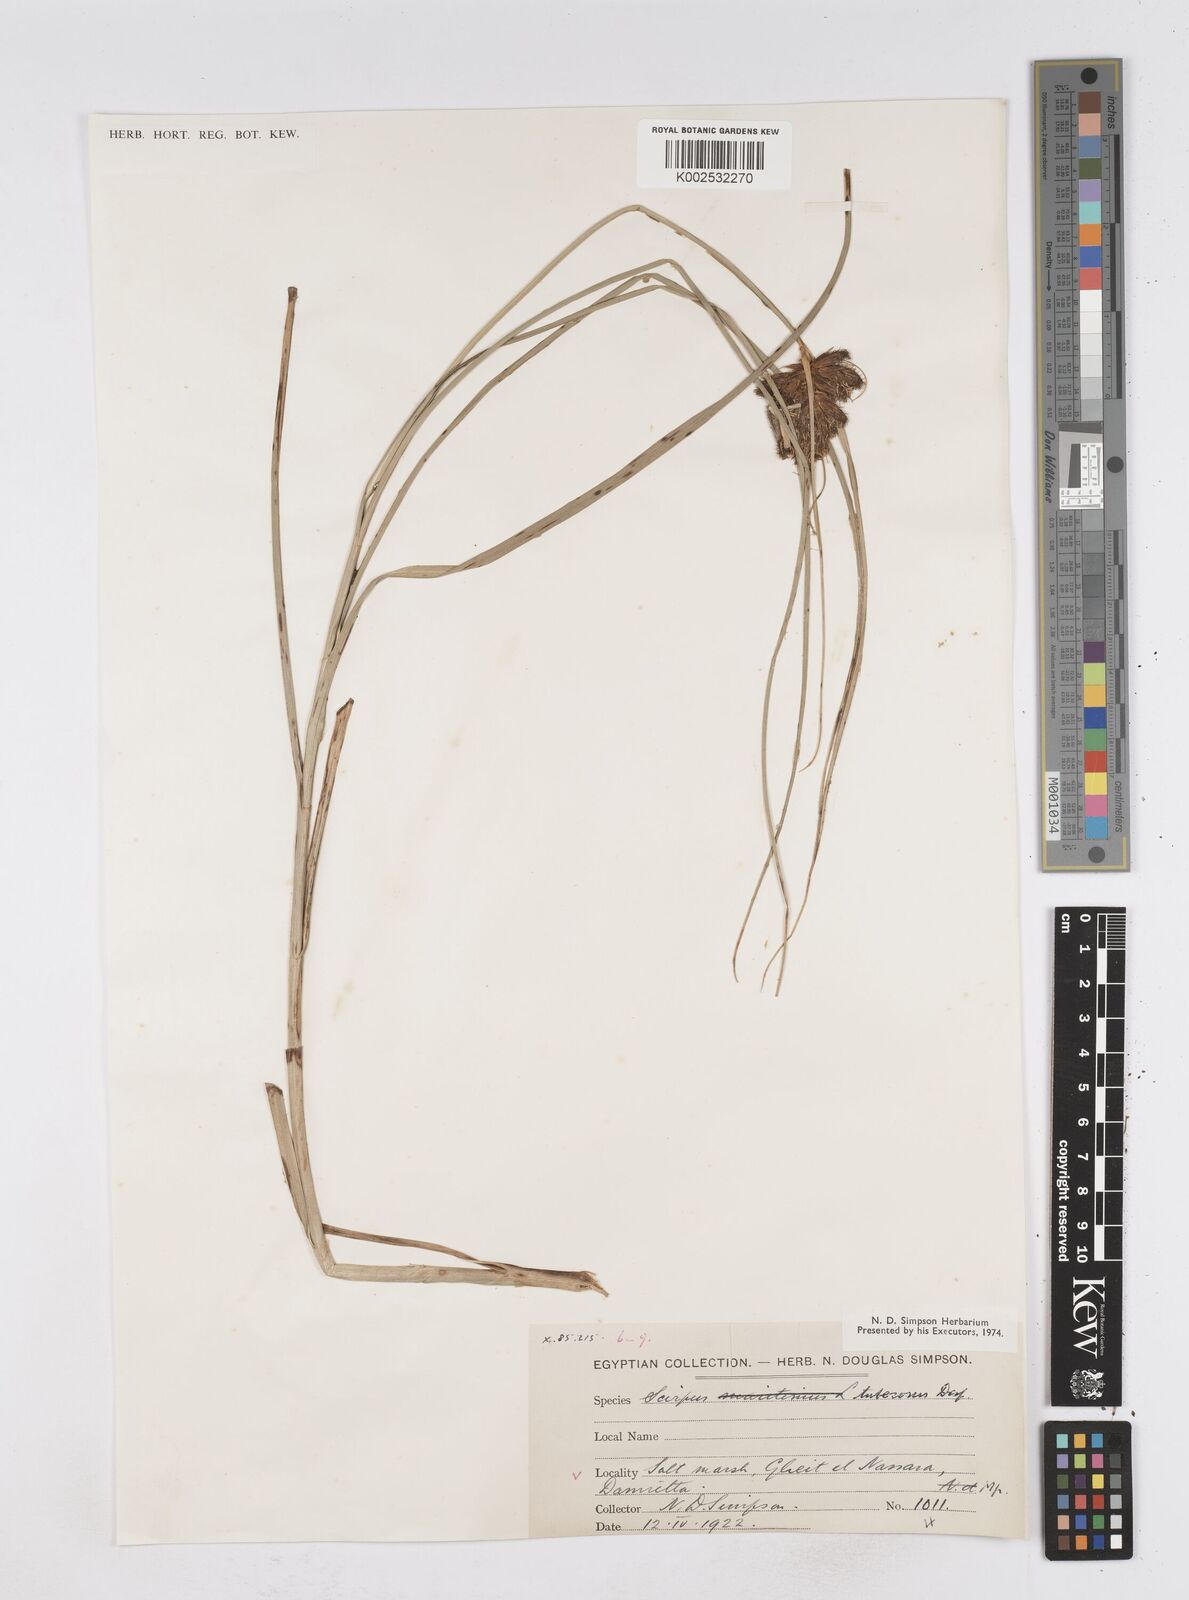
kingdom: Plantae
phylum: Tracheophyta
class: Liliopsida
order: Poales
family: Cyperaceae
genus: Bolboschoenus
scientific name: Bolboschoenus maritimus
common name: Sea club-rush
